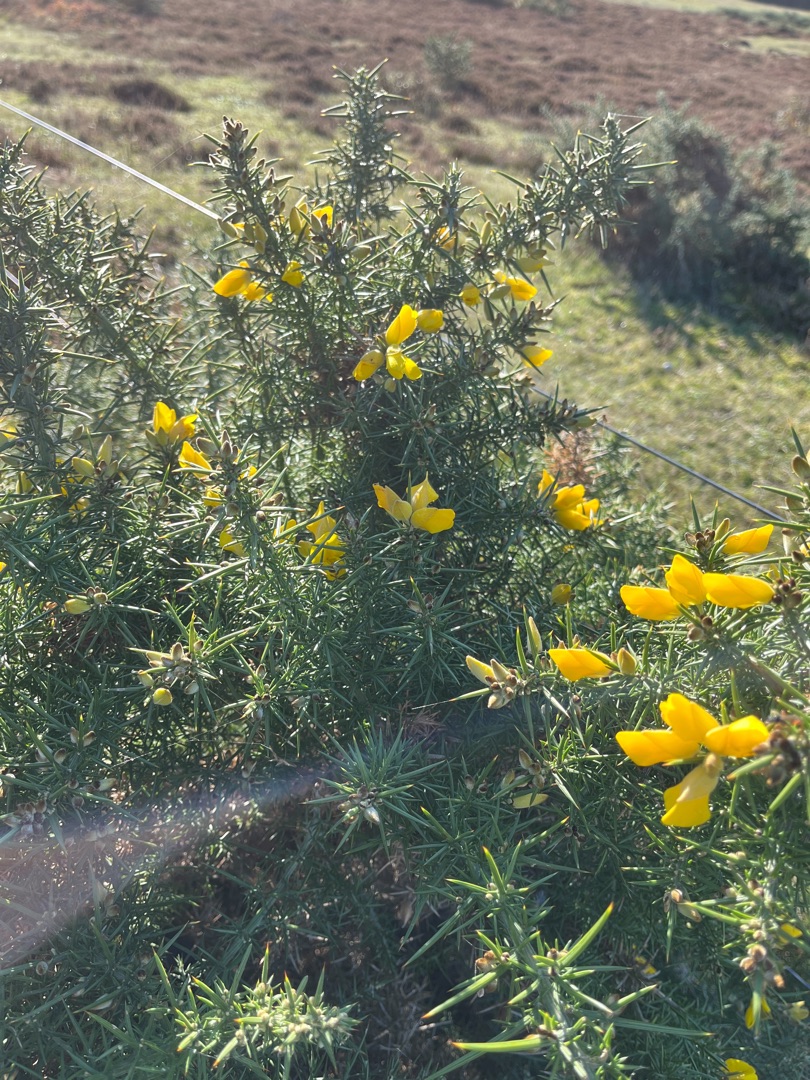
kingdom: Plantae
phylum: Tracheophyta
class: Magnoliopsida
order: Fabales
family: Fabaceae
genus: Ulex
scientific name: Ulex europaeus
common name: Tornblad
